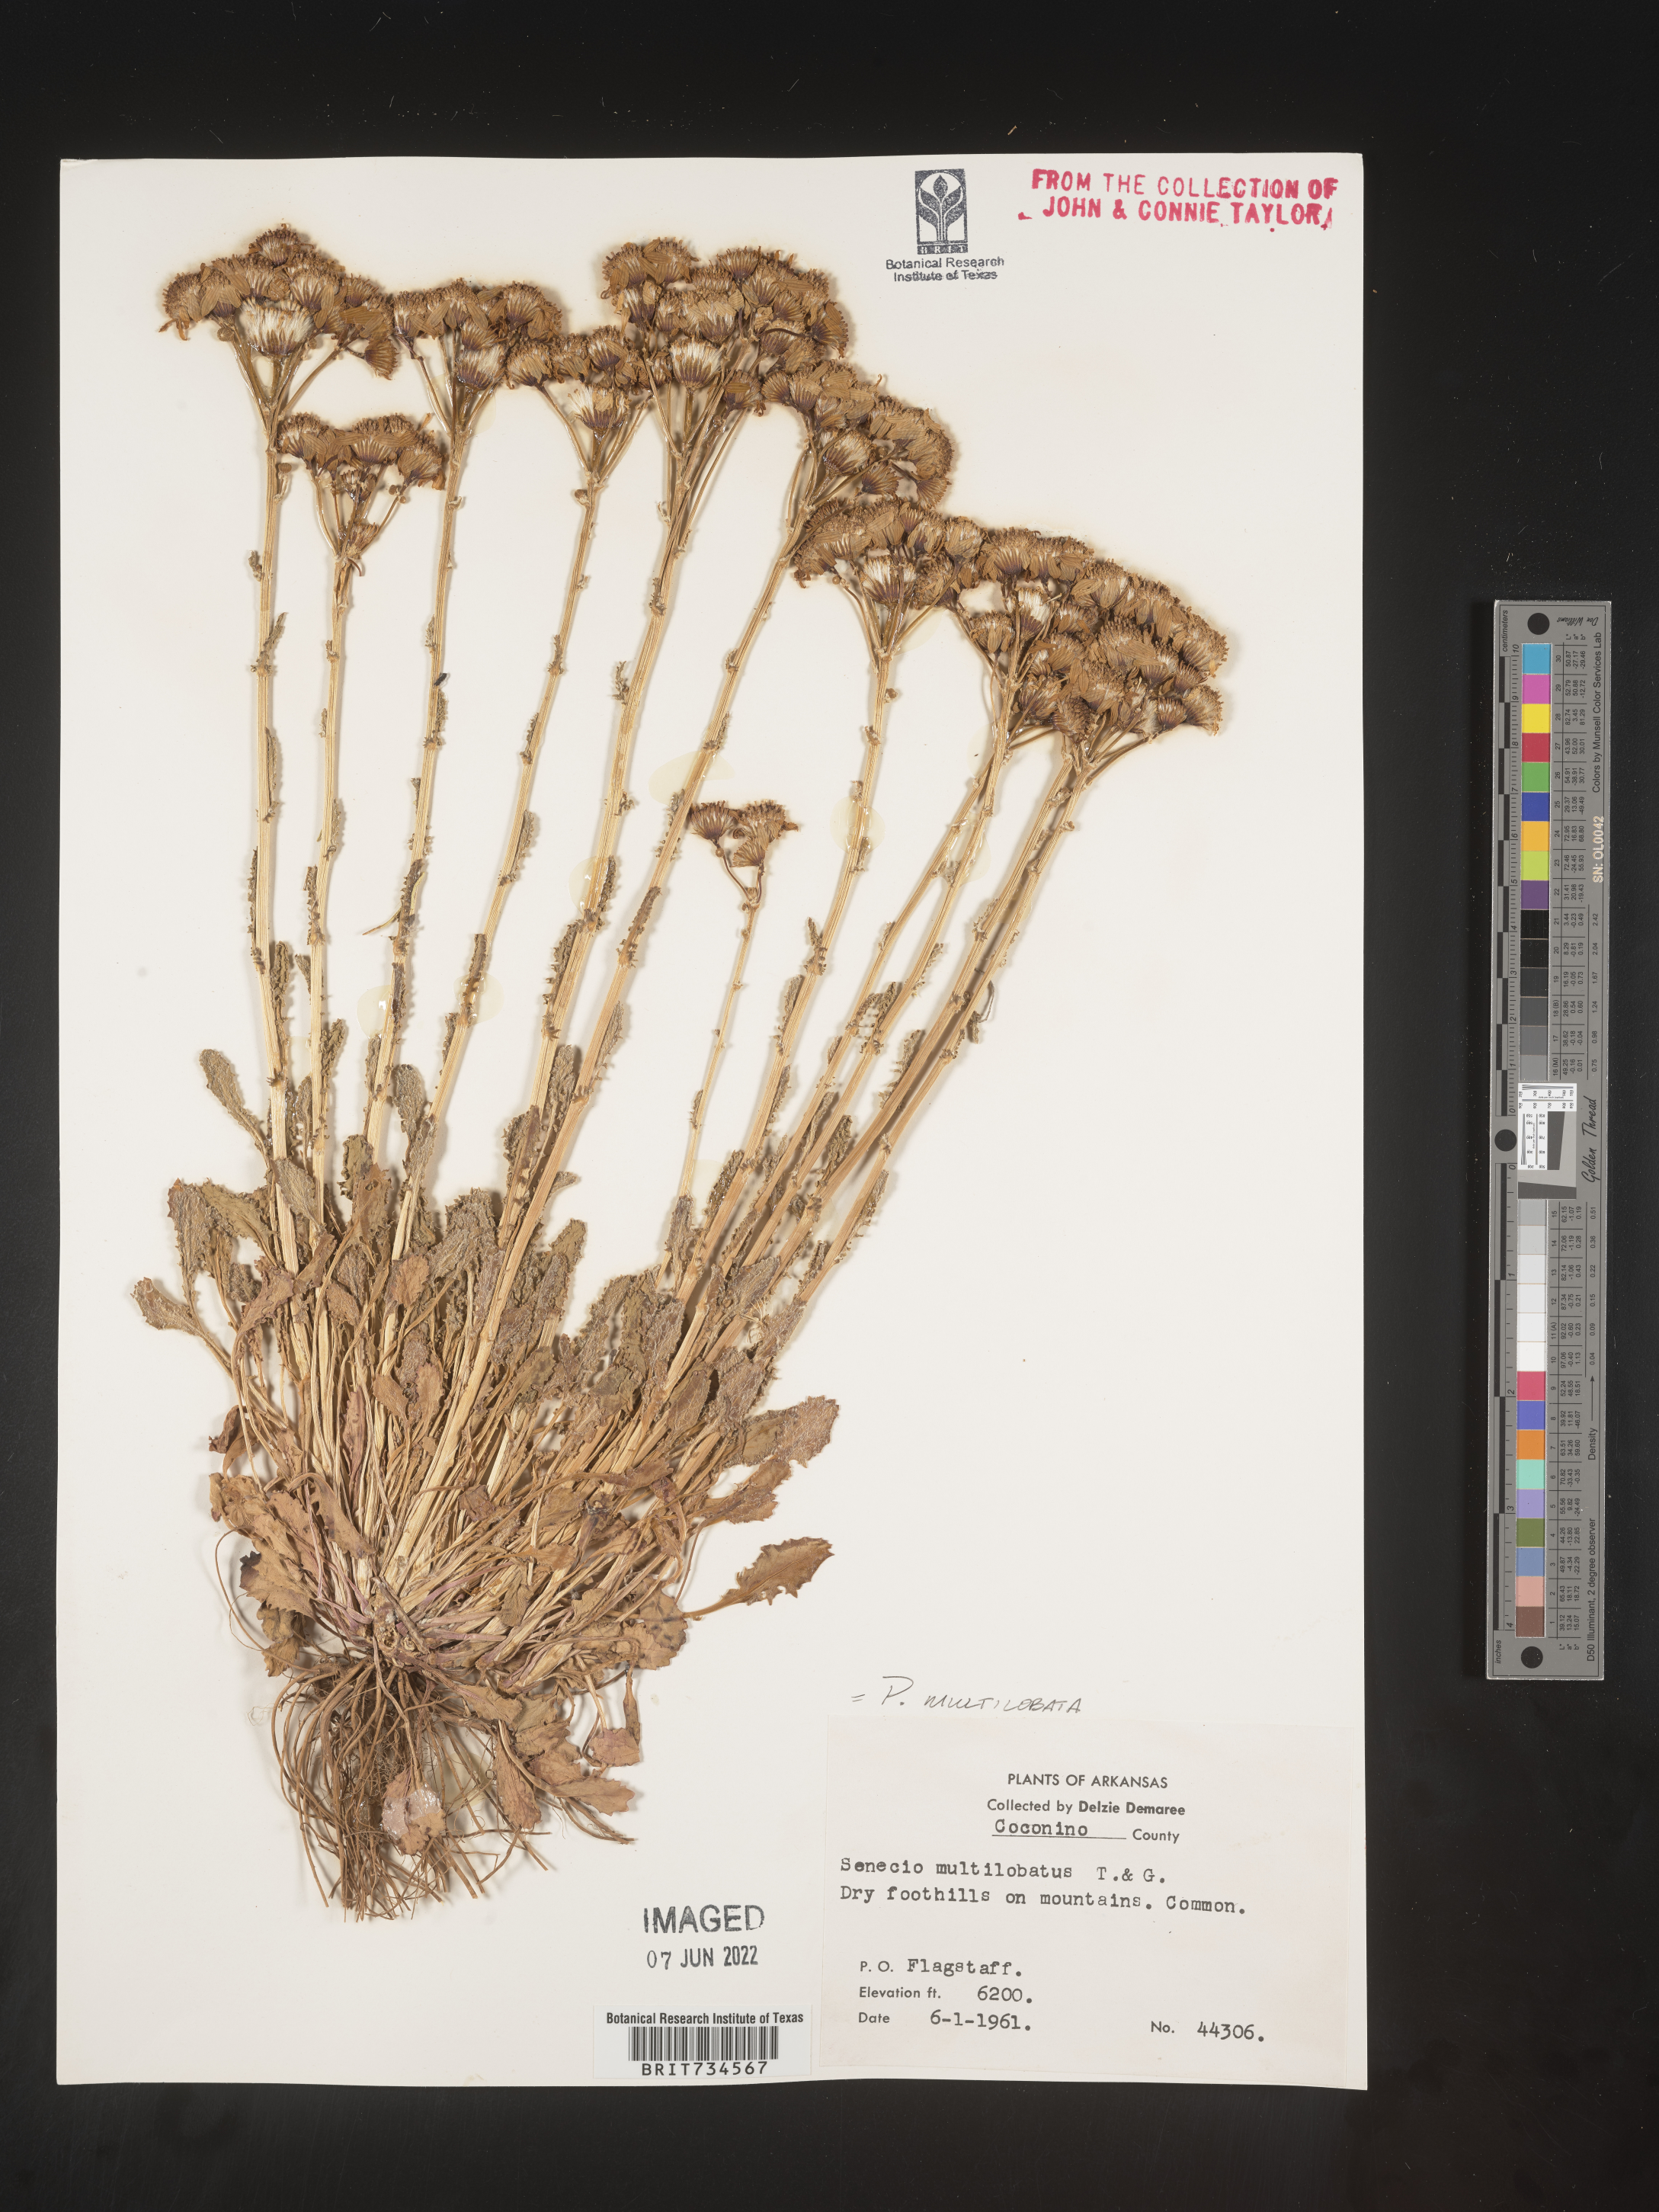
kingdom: Plantae
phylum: Tracheophyta
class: Magnoliopsida
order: Asterales
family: Asteraceae
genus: Packera
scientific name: Packera multilobata
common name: Lobe-leaf groundsel
